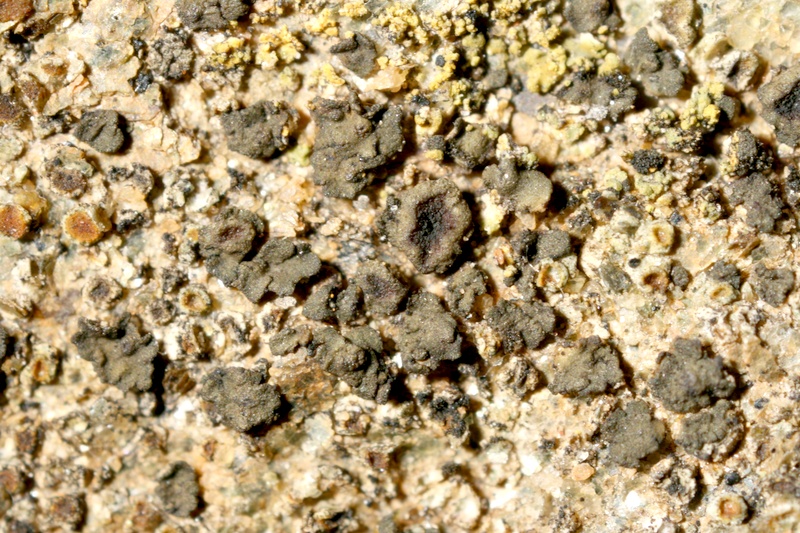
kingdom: Fungi
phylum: Ascomycota
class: Lichinomycetes
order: Lichinales
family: Peltulaceae
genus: Peltula
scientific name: Peltula hassei
